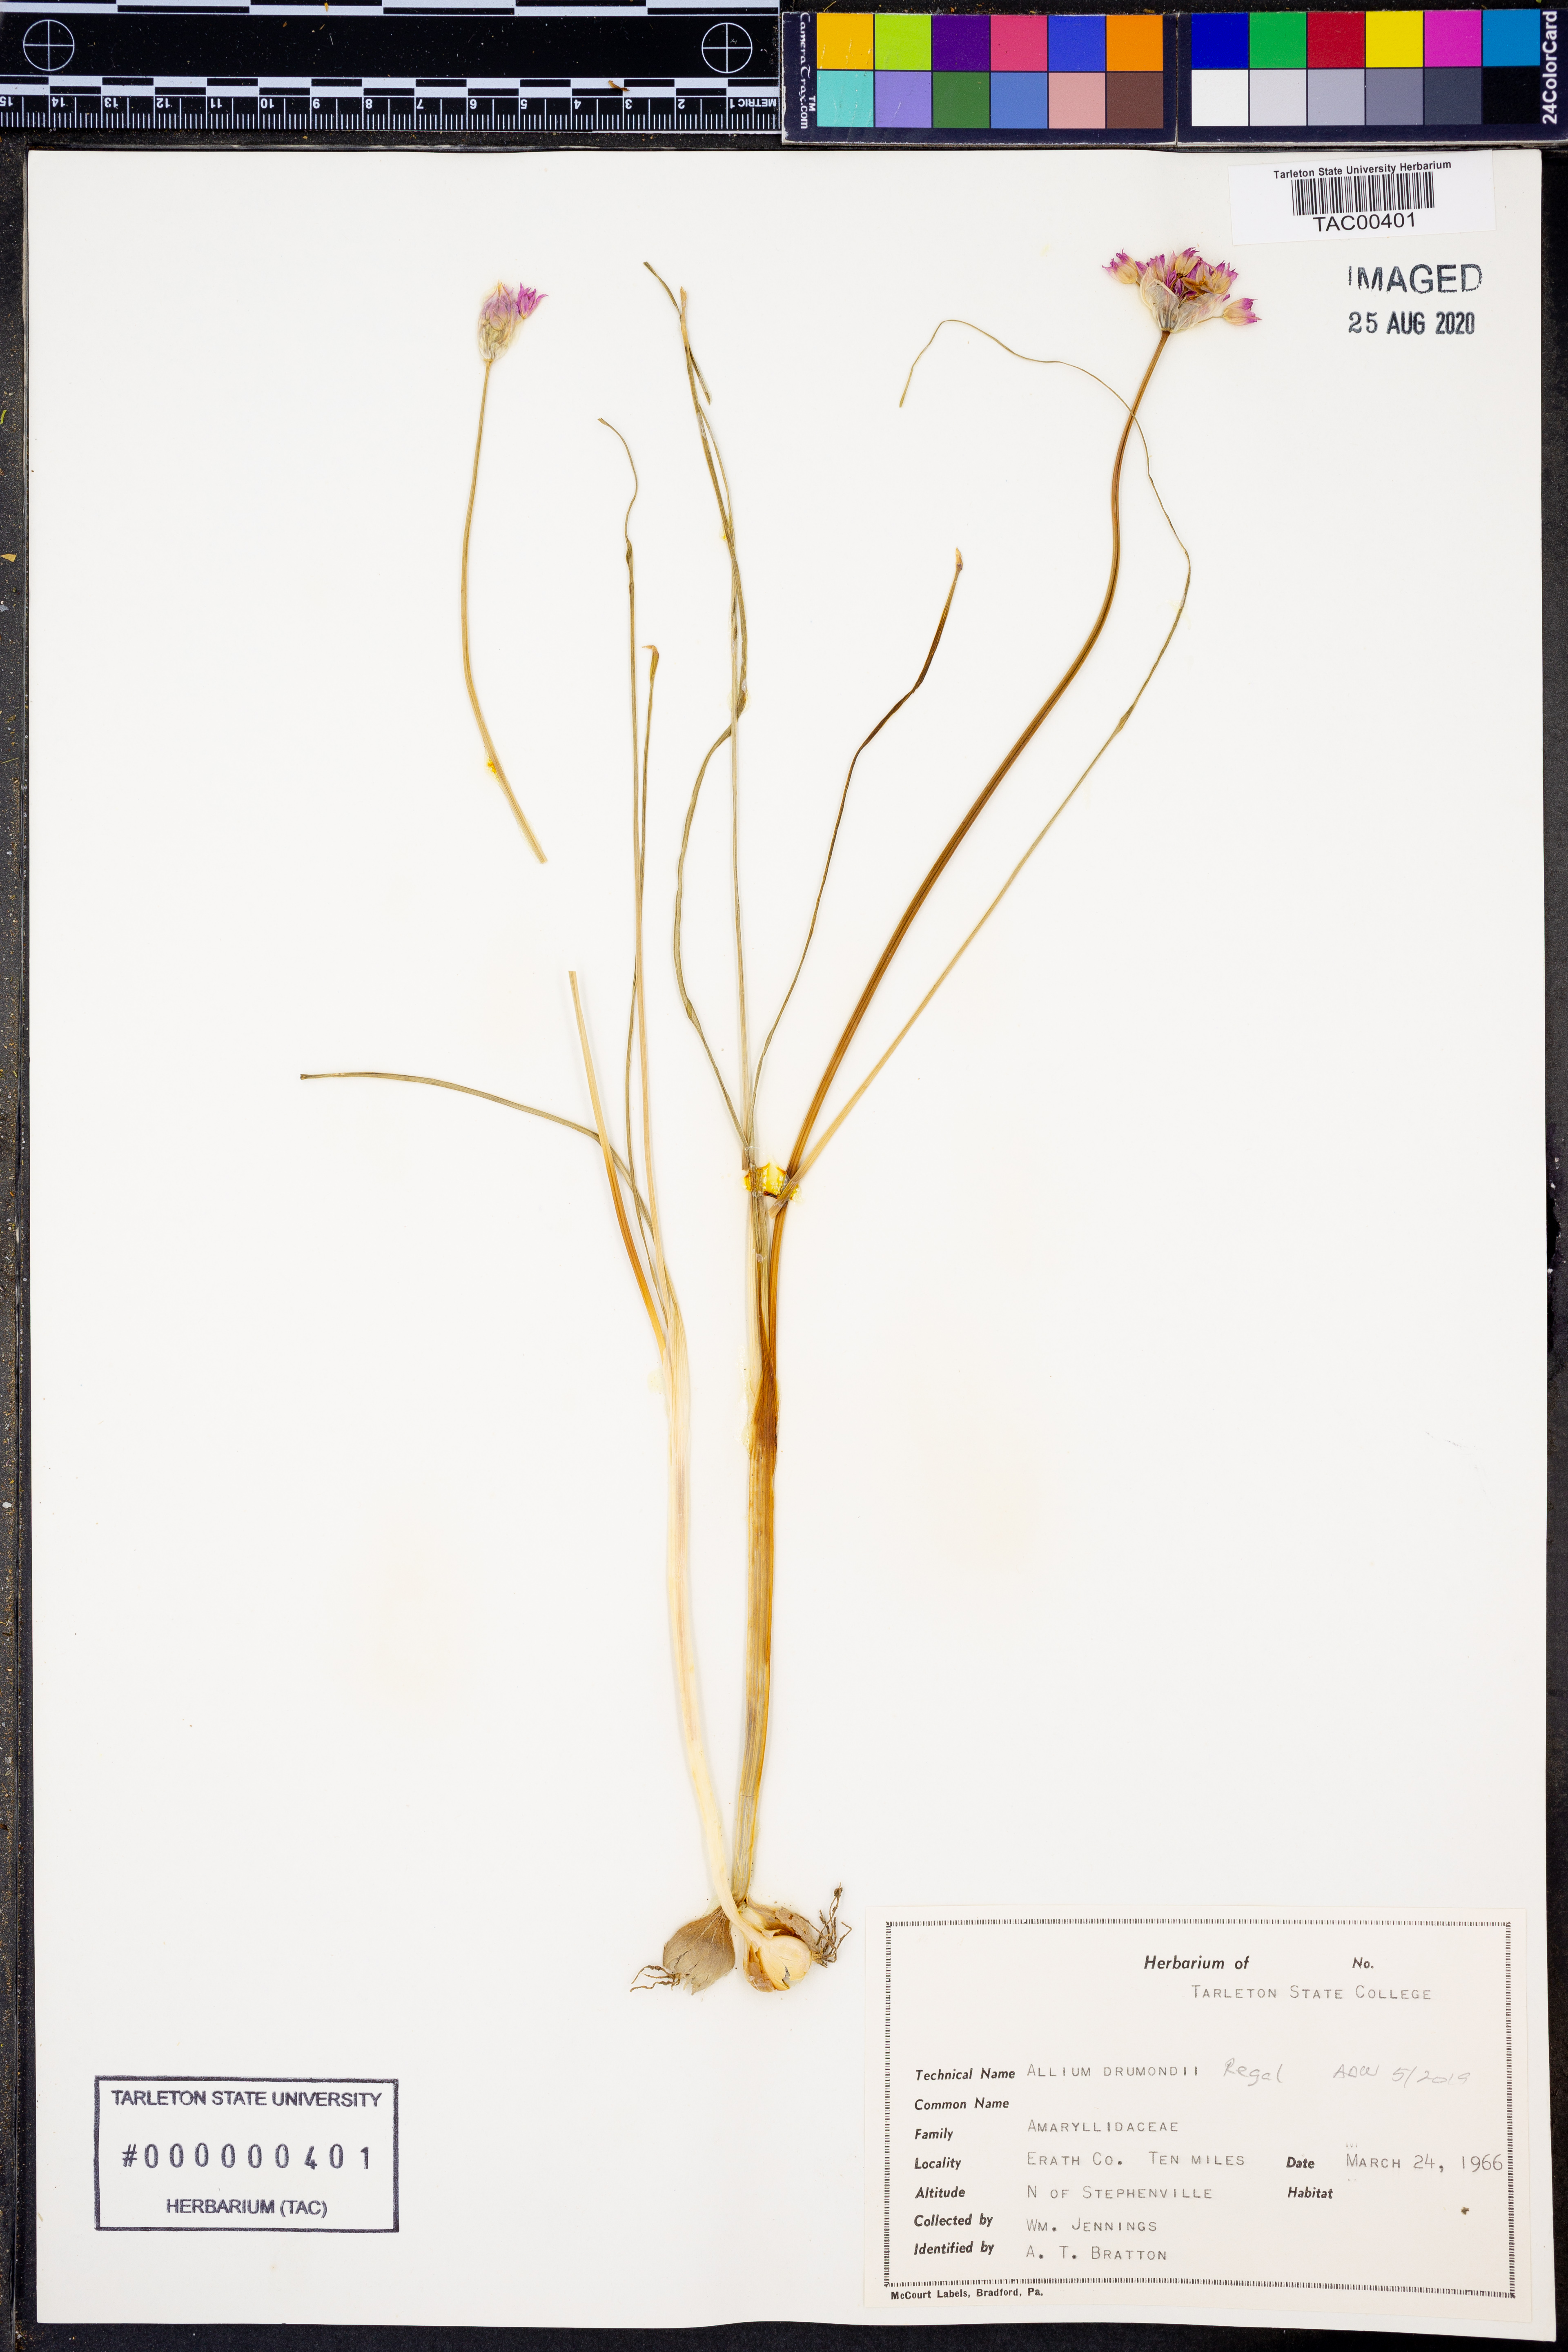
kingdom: Plantae
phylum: Tracheophyta
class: Liliopsida
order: Asparagales
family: Amaryllidaceae
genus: Allium
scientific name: Allium drummondii
